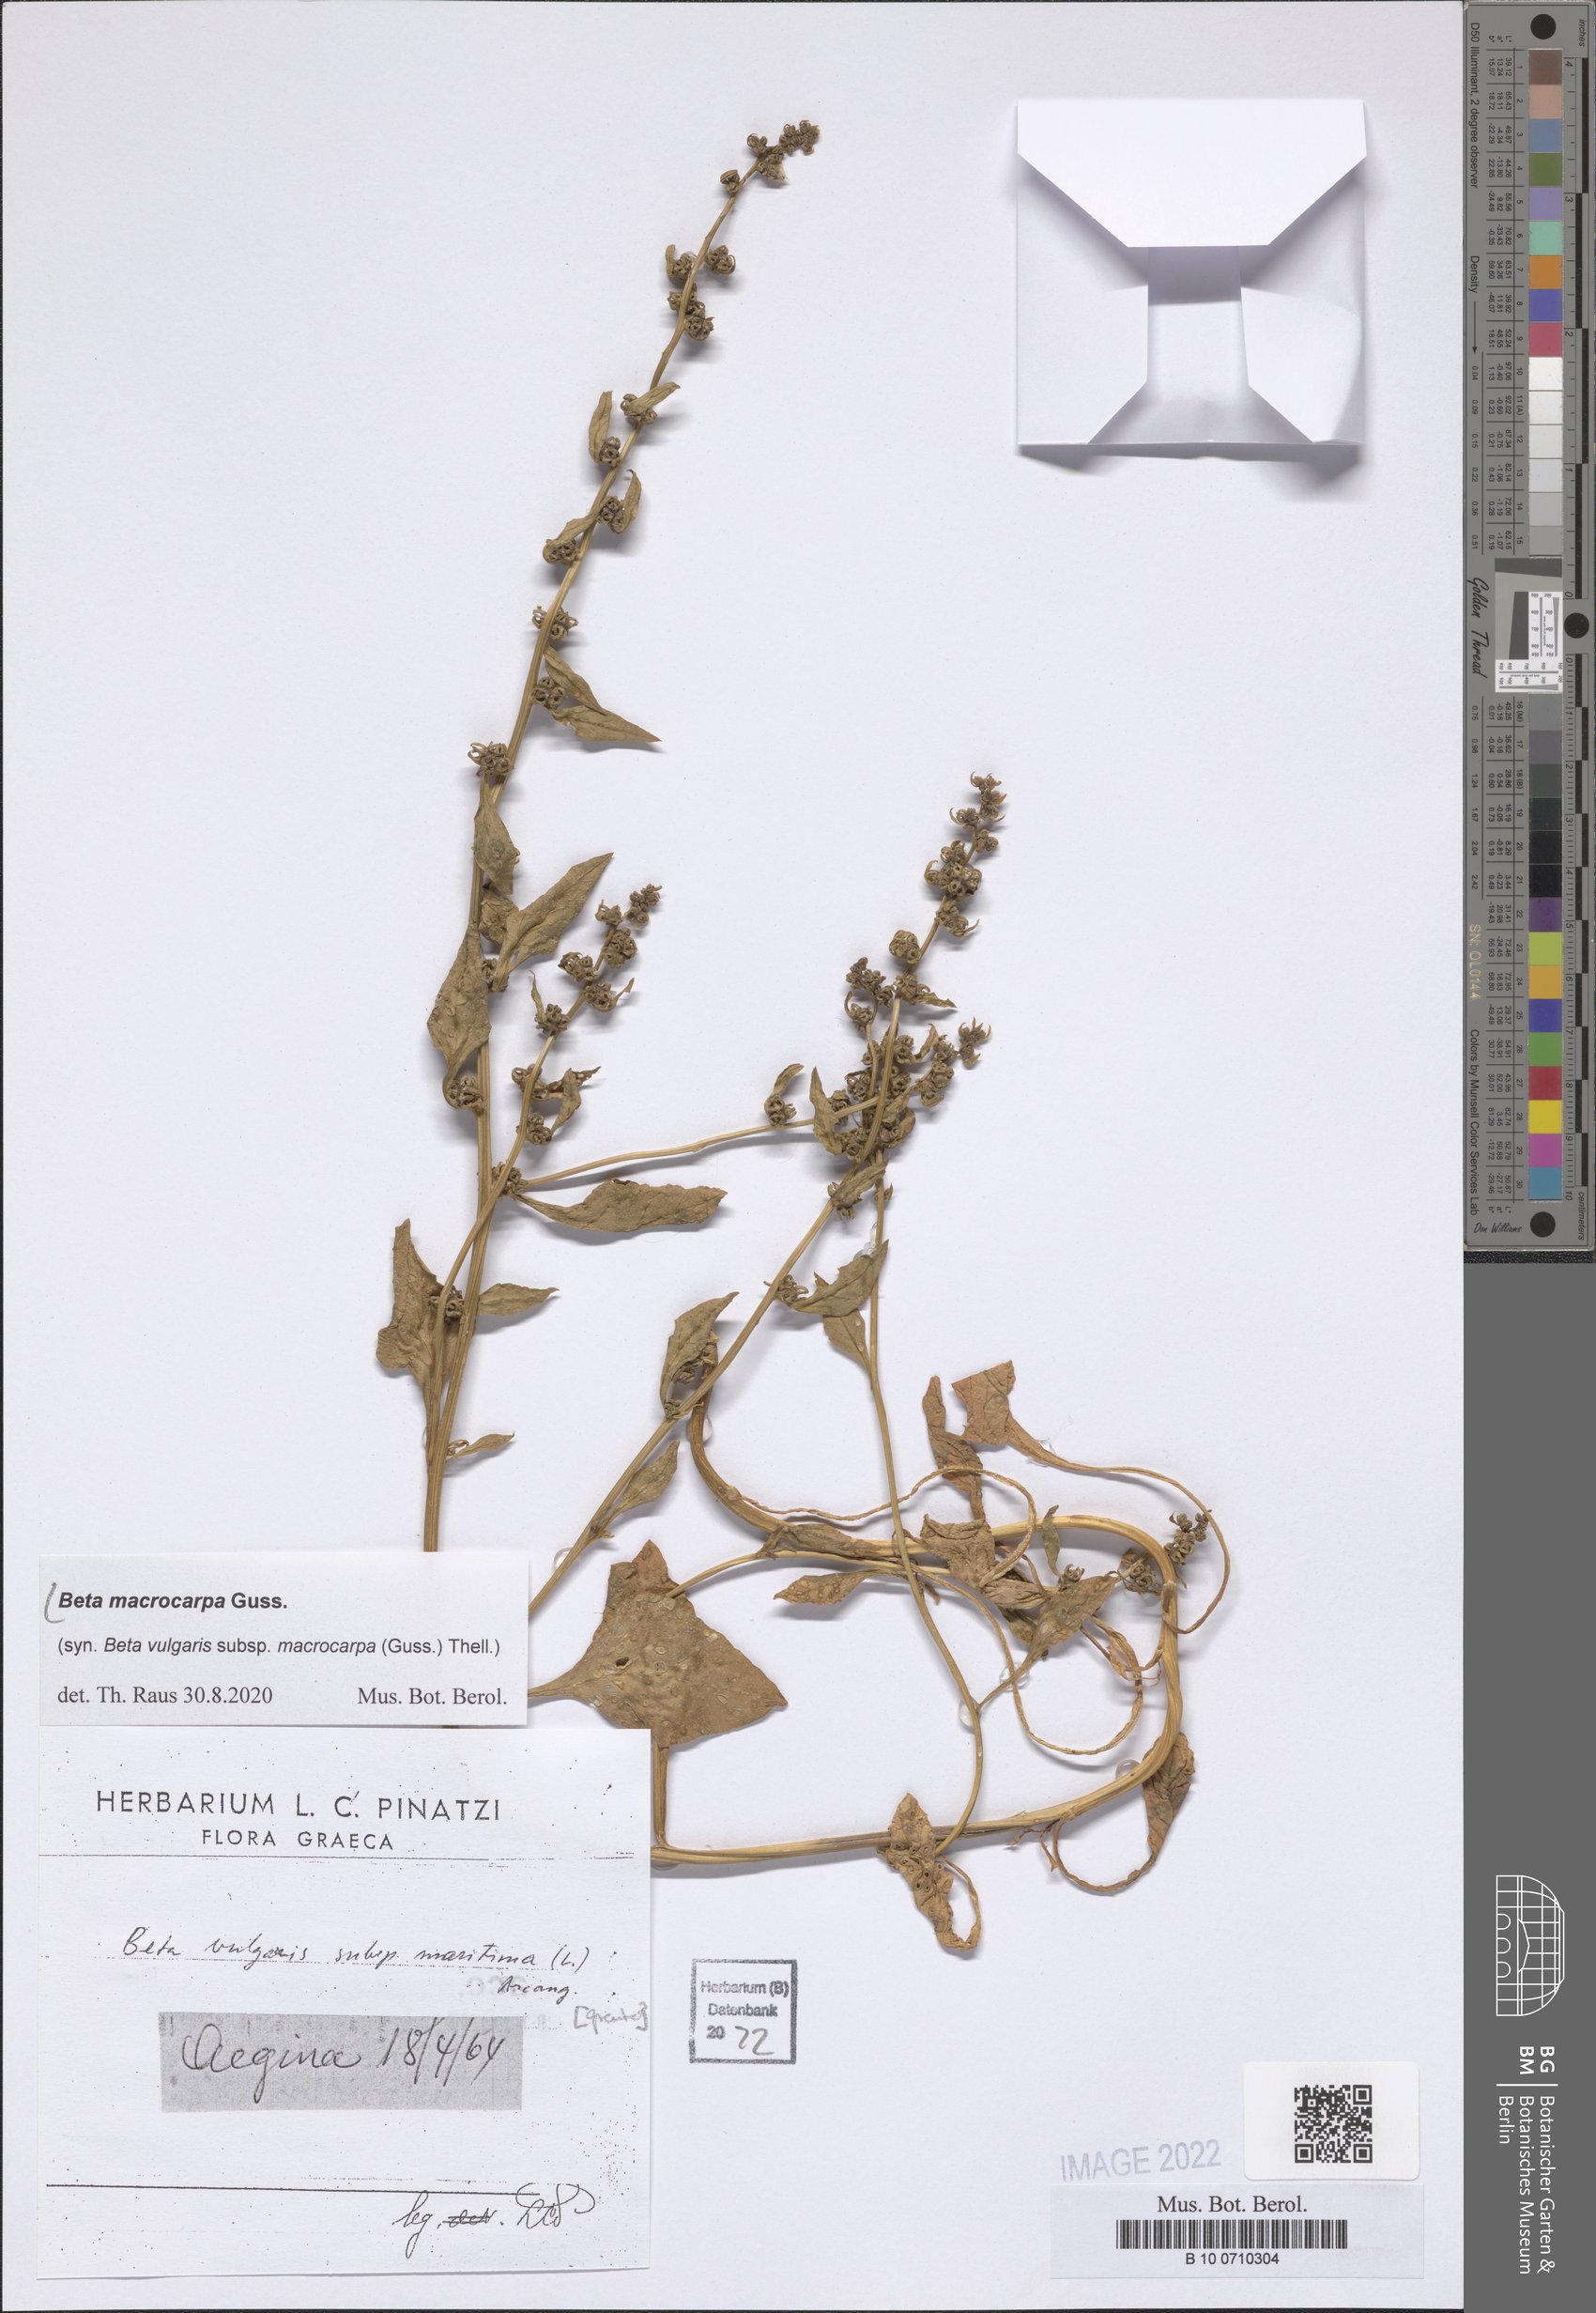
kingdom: Plantae
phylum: Tracheophyta
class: Magnoliopsida
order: Caryophyllales
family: Amaranthaceae
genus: Beta
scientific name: Beta macrocarpa
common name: Beet
